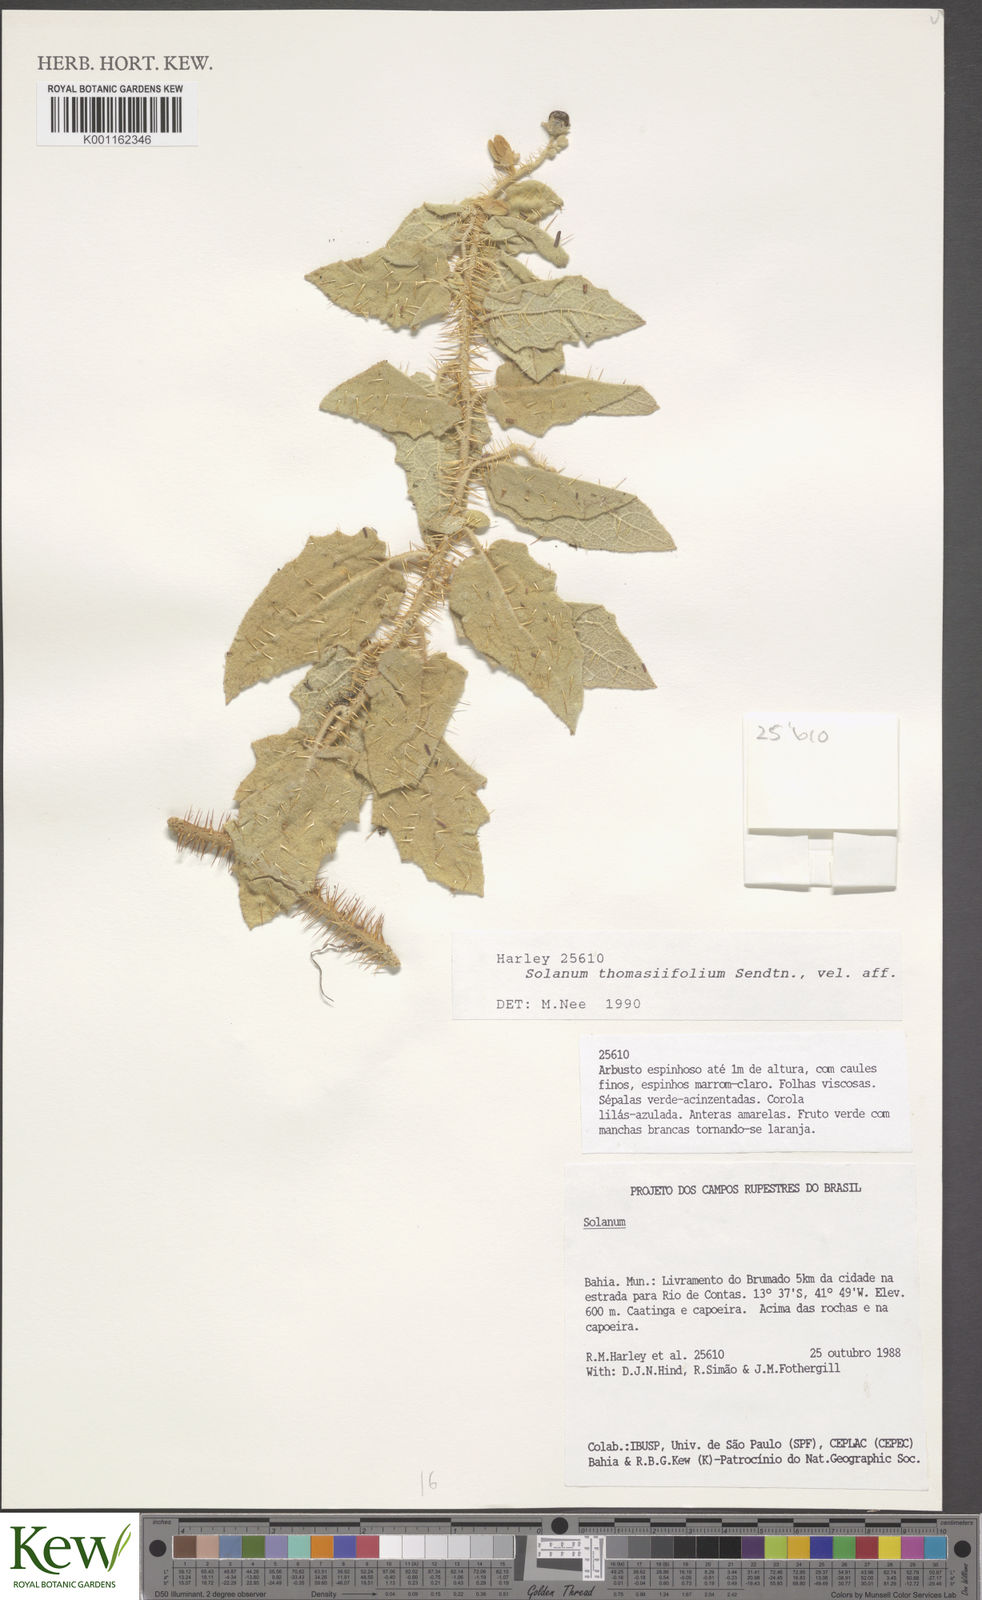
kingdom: Plantae
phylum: Tracheophyta
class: Magnoliopsida
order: Solanales
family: Solanaceae
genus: Solanum
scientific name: Solanum thomasiifolium
